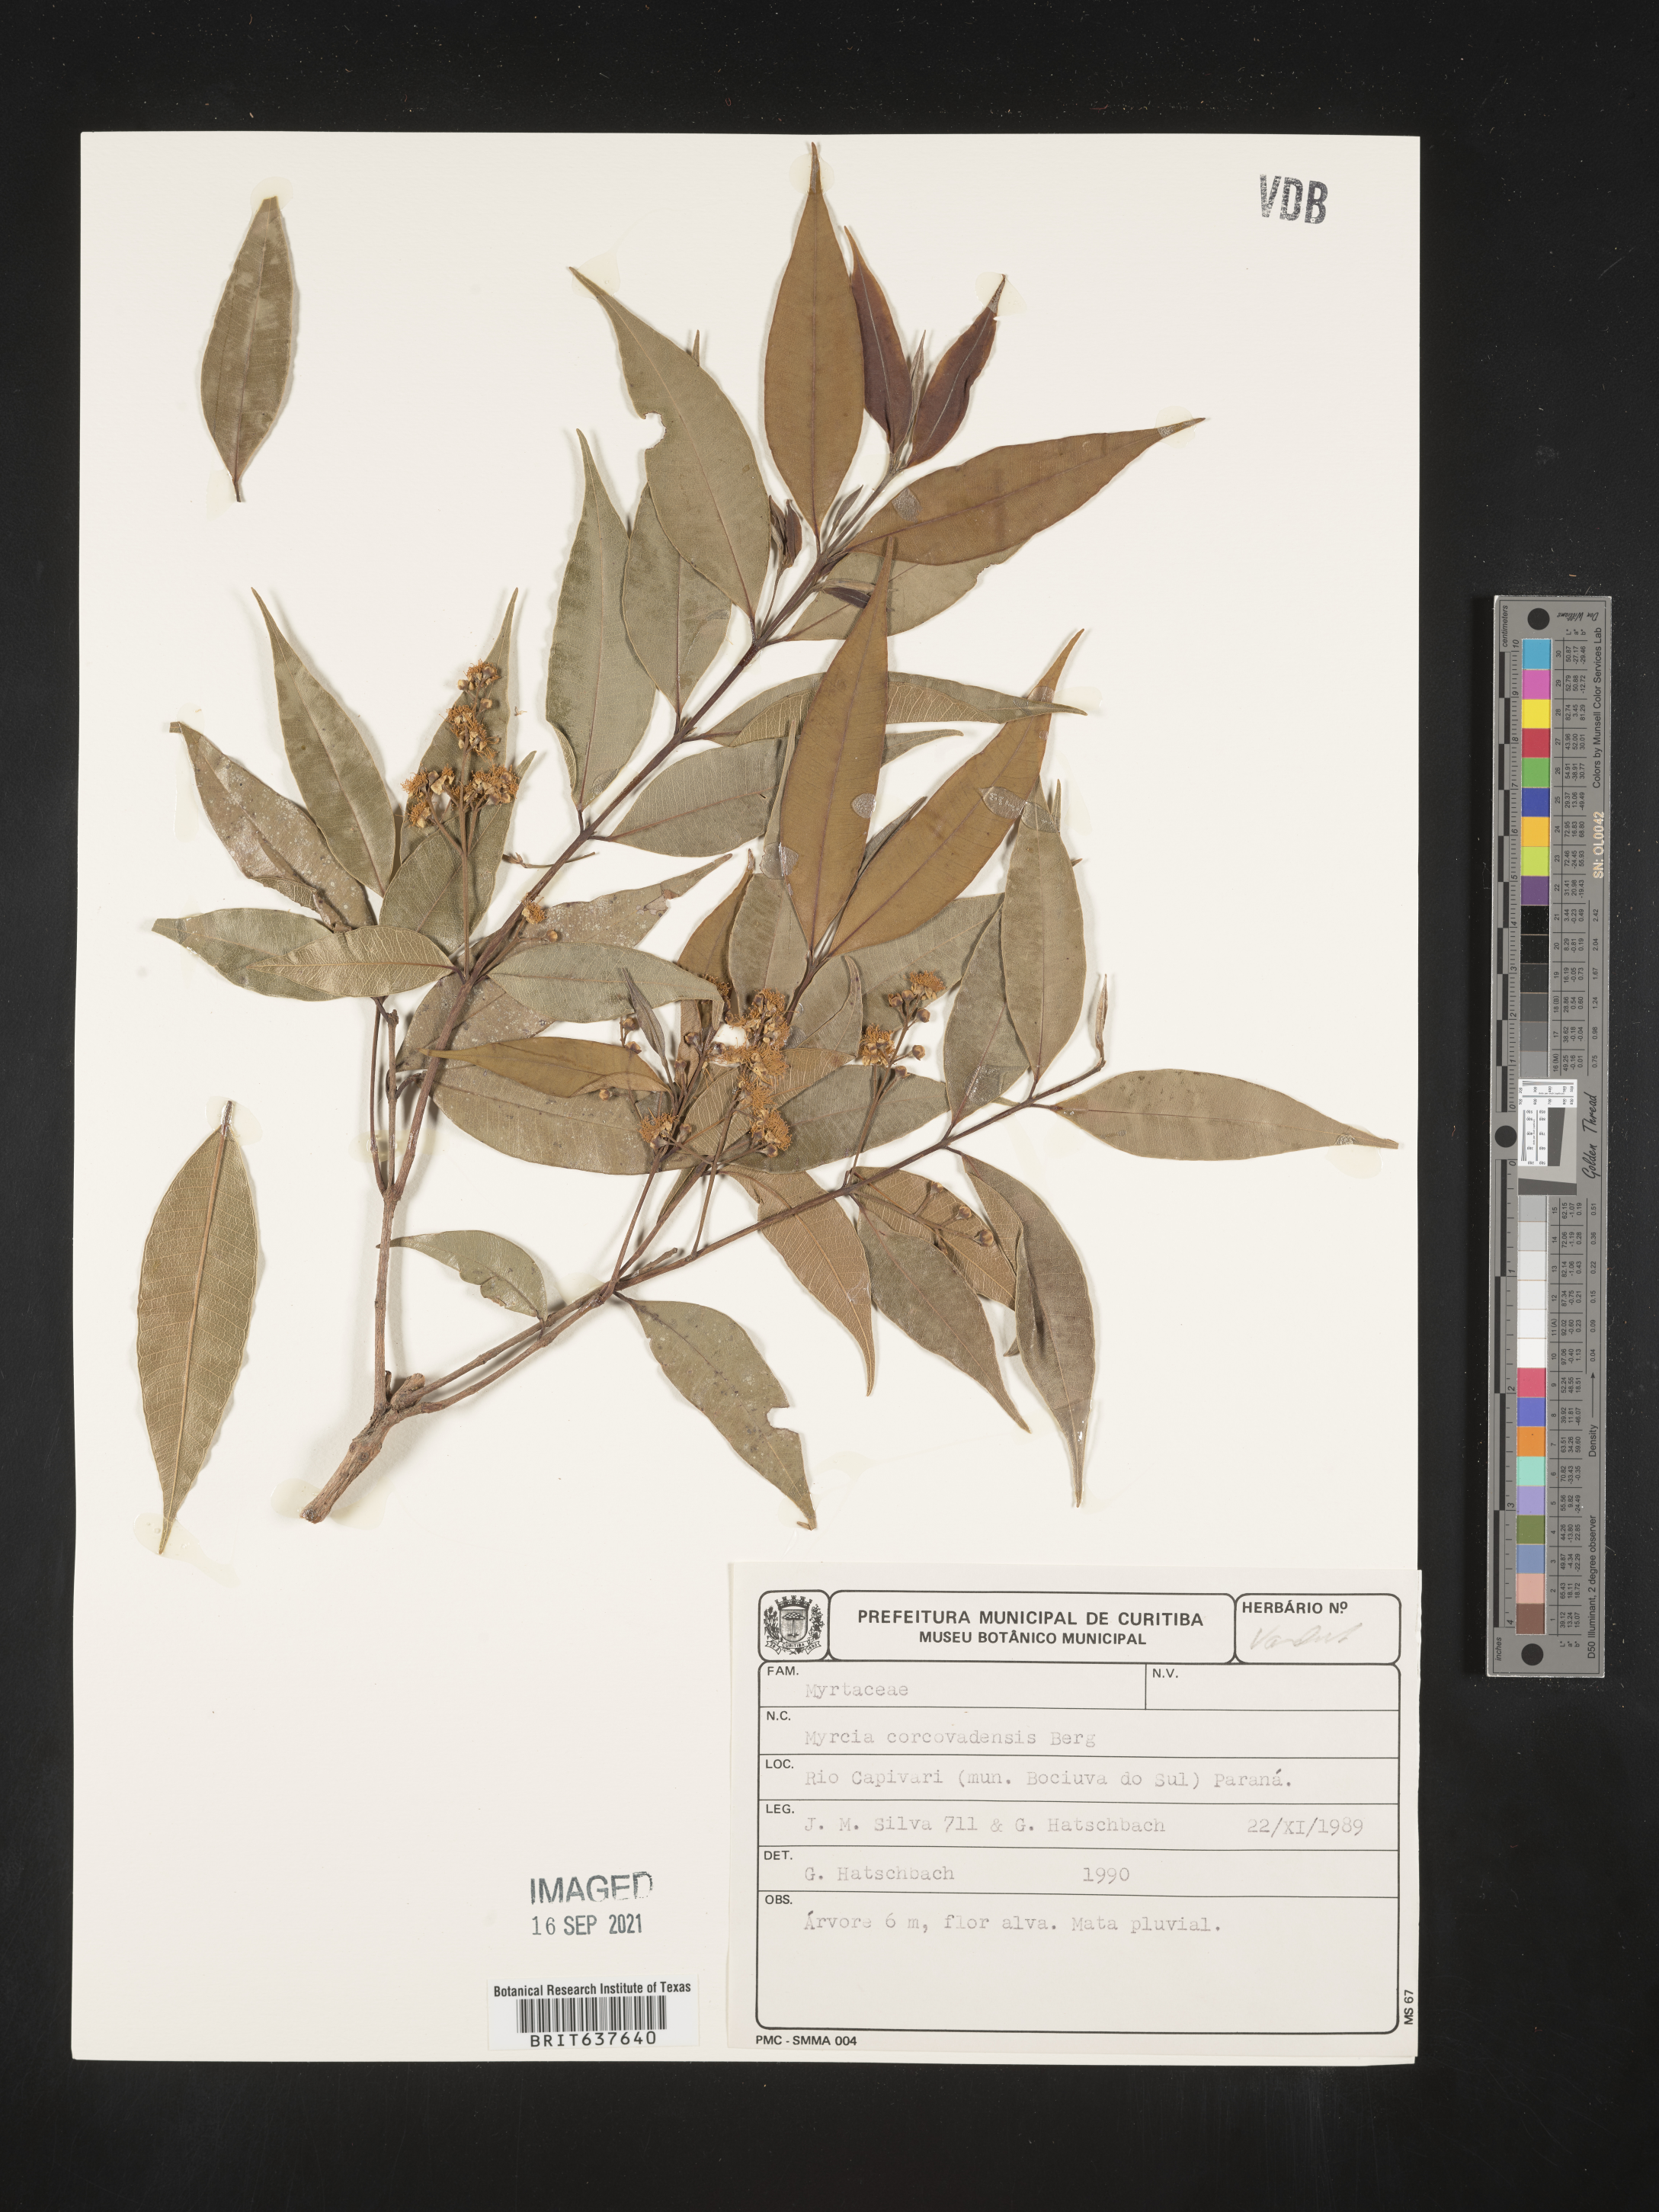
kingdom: Plantae
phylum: Tracheophyta
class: Magnoliopsida
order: Myrtales
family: Myrtaceae
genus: Myrcia
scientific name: Myrcia
